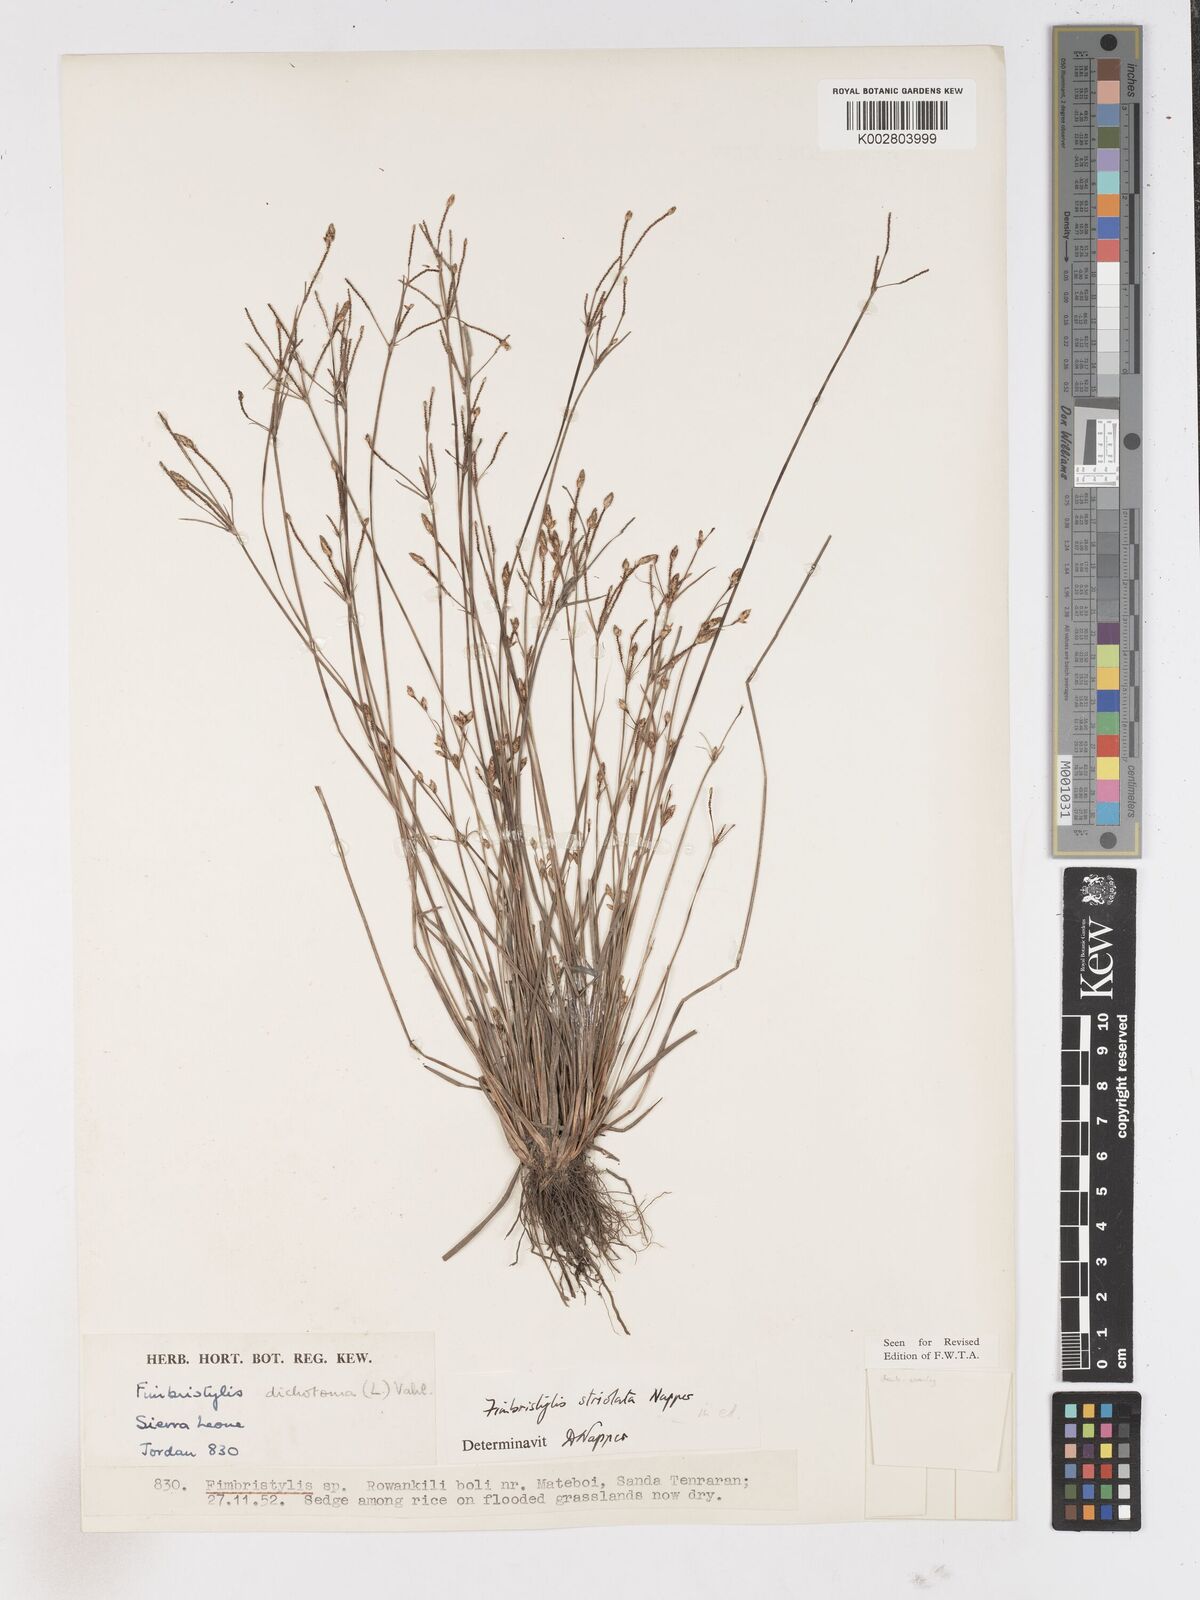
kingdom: Plantae
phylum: Tracheophyta
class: Liliopsida
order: Poales
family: Cyperaceae
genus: Fimbristylis
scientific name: Fimbristylis striolata
